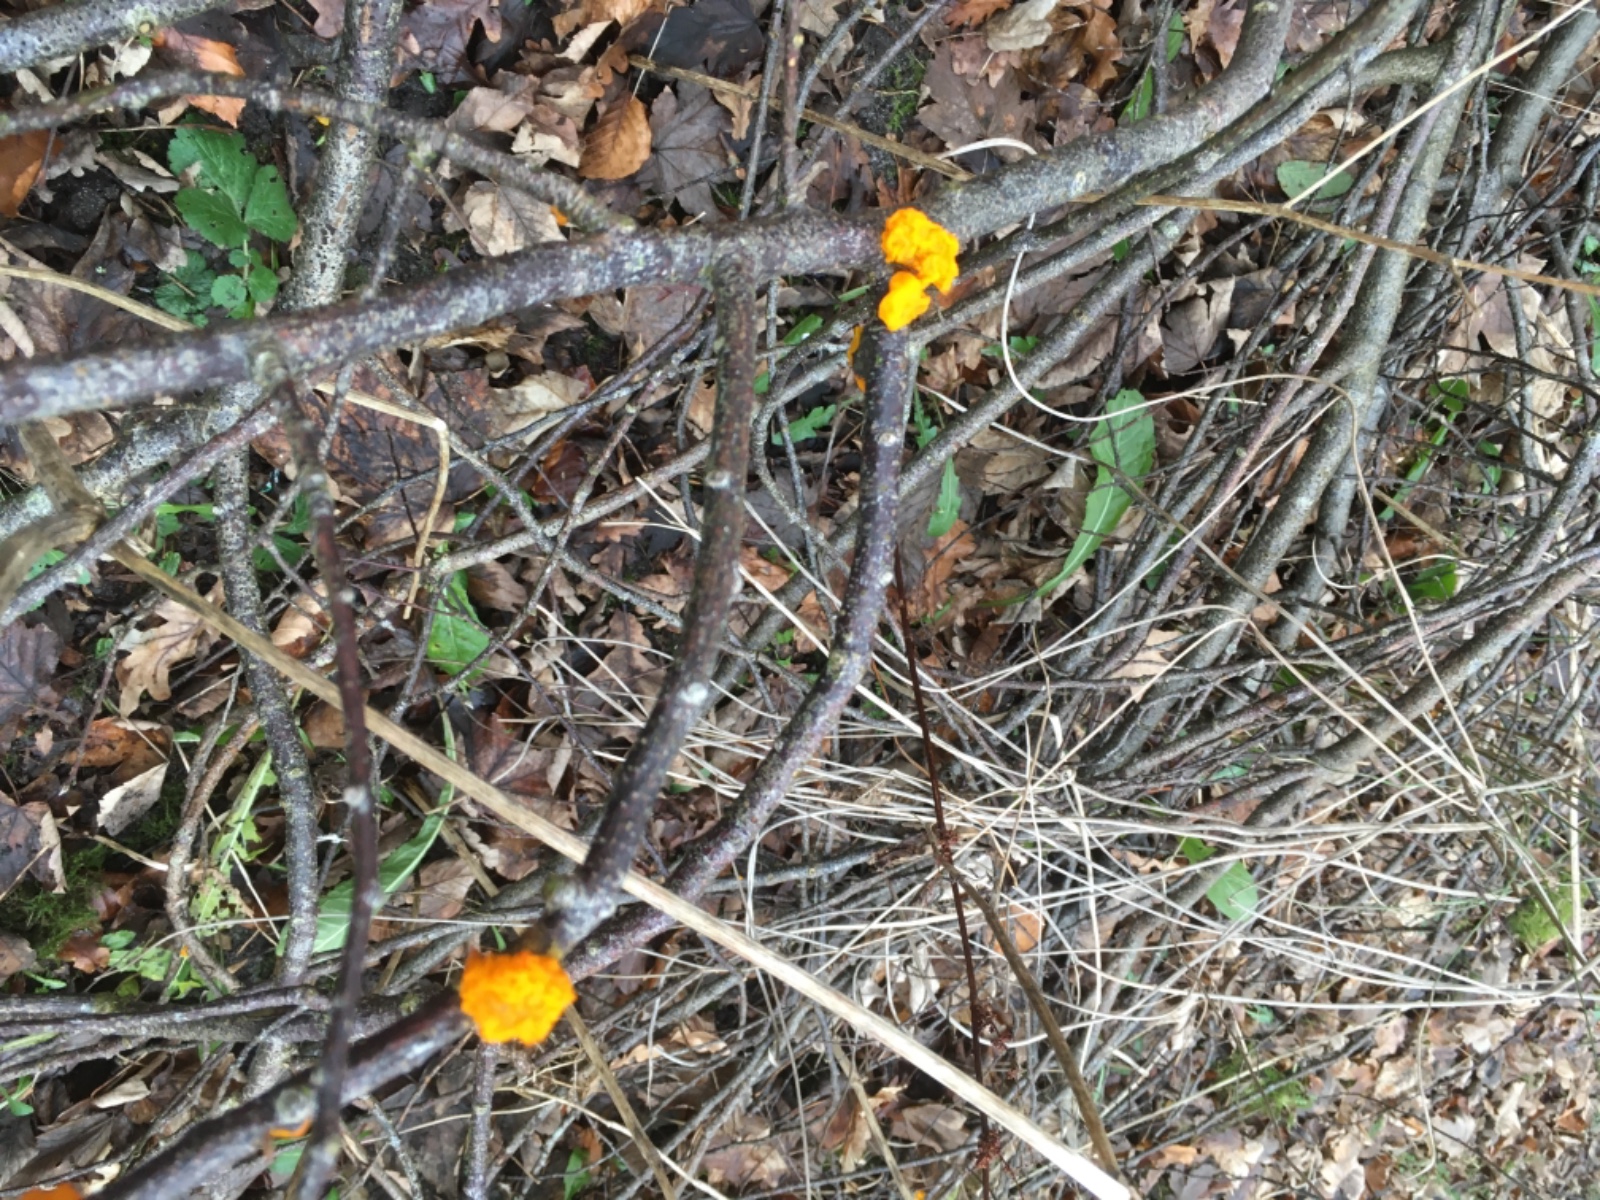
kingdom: Fungi
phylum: Basidiomycota
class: Tremellomycetes
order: Tremellales
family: Tremellaceae
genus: Tremella
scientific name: Tremella mesenterica
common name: gul bævresvamp
